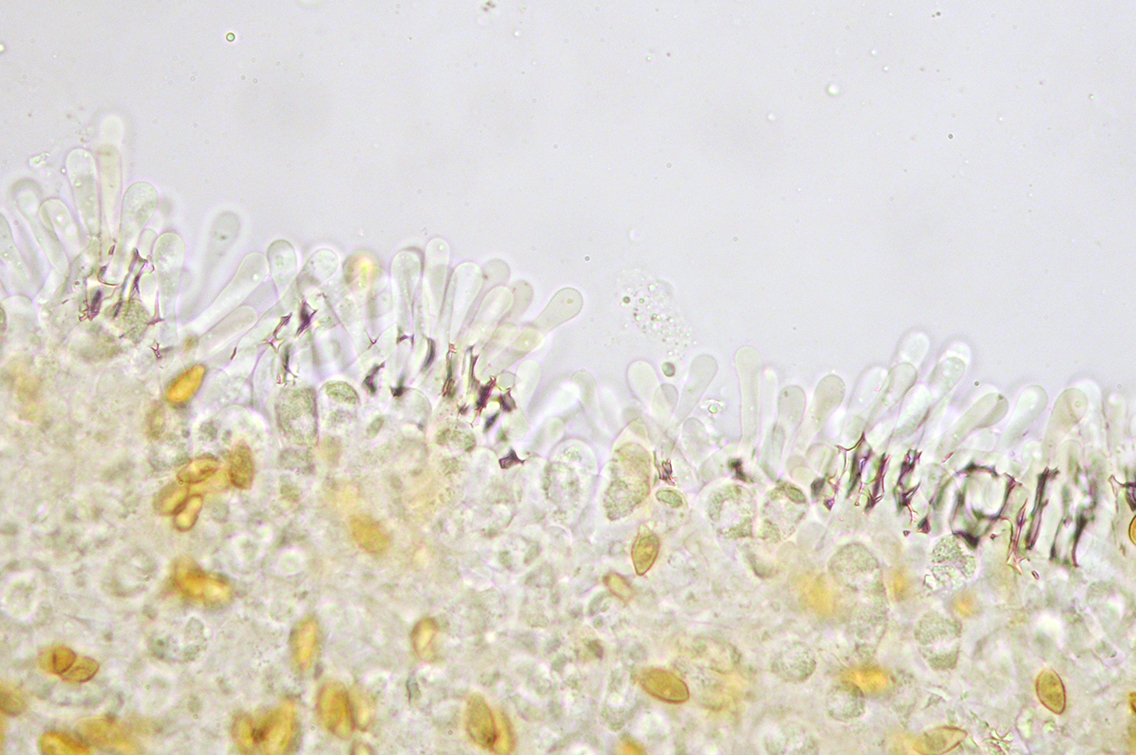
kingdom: Fungi
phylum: Basidiomycota
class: Agaricomycetes
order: Agaricales
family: Hymenogastraceae
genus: Hebeloma
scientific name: Hebeloma cavipes
